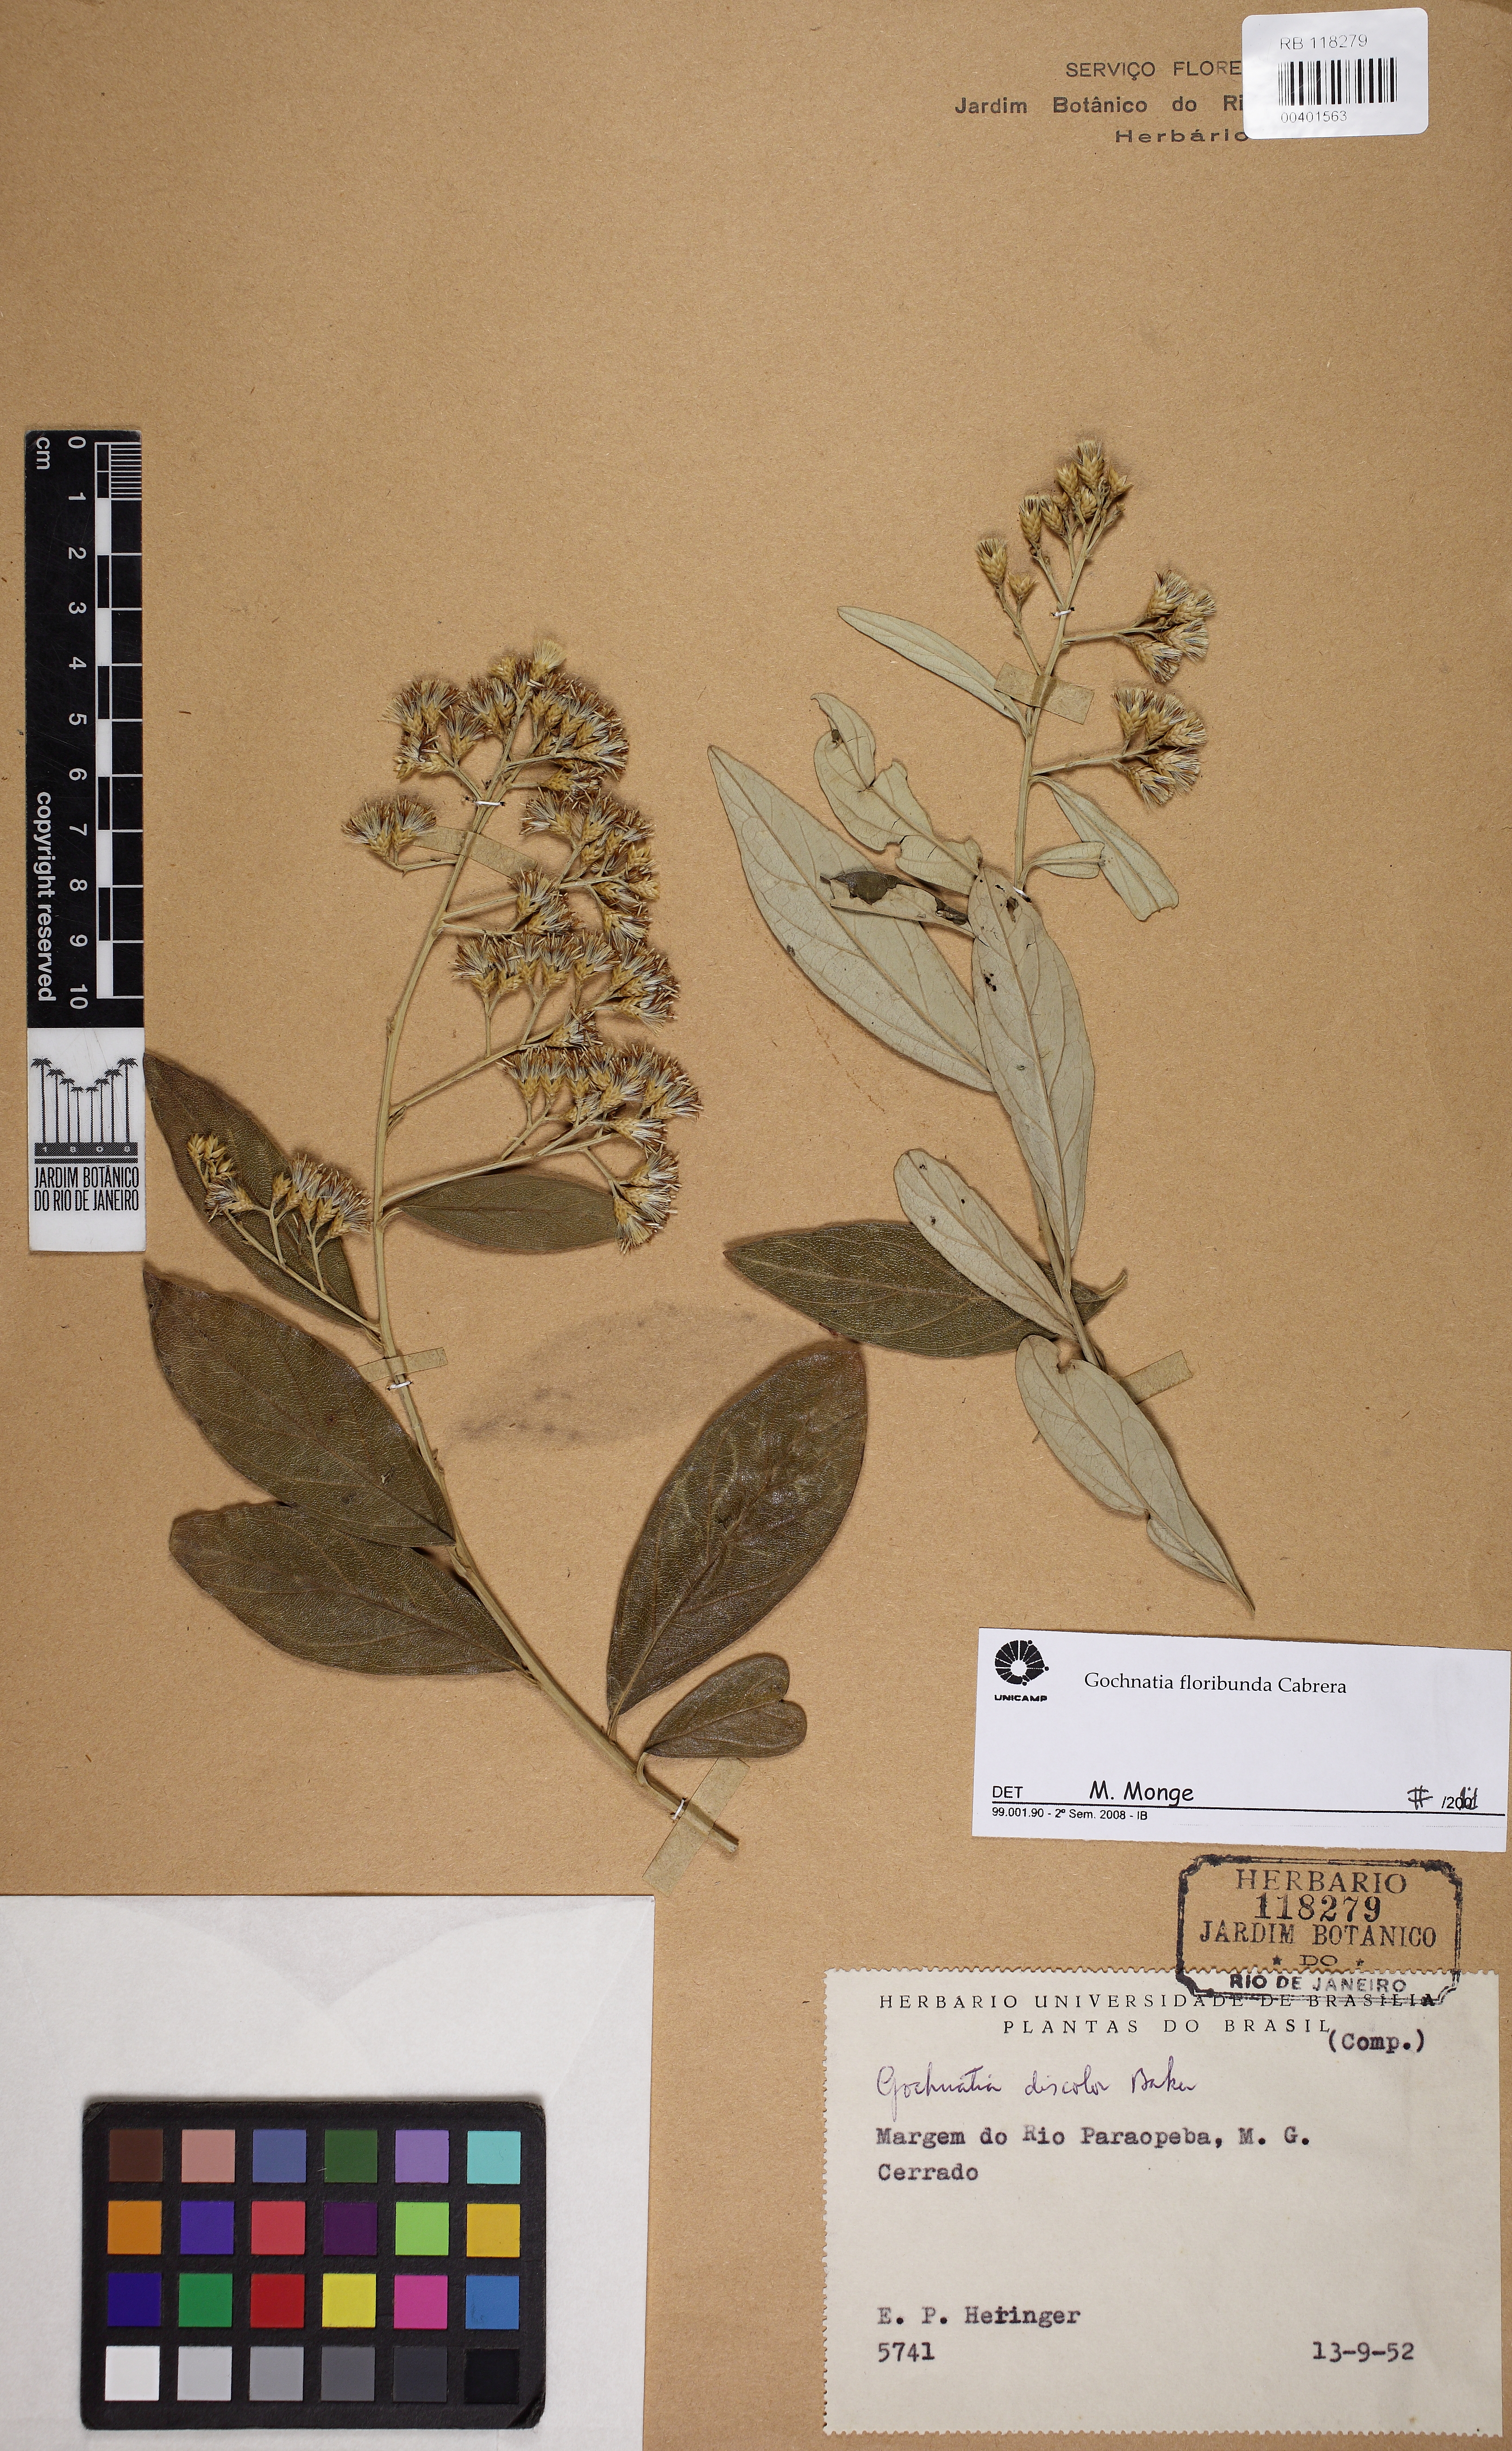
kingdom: Plantae
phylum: Tracheophyta
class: Magnoliopsida
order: Asterales
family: Asteraceae
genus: Moquiniastrum
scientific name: Moquiniastrum floribundum
